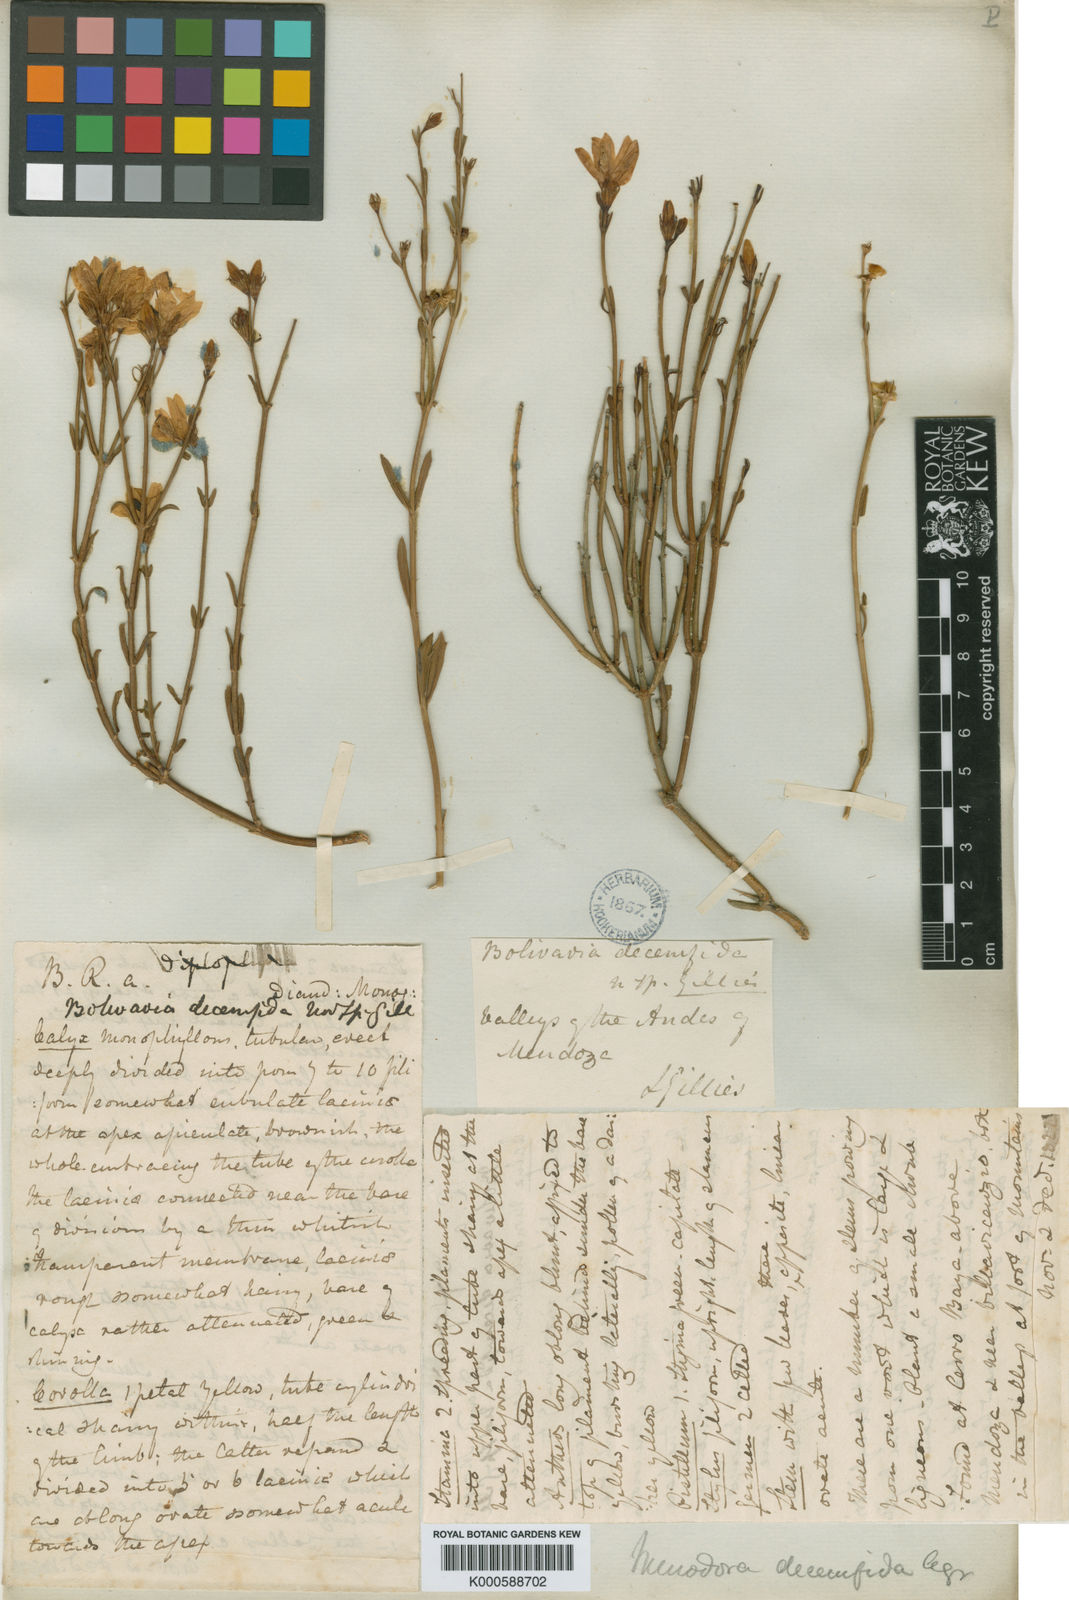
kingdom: Plantae
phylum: Tracheophyta
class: Magnoliopsida
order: Lamiales
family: Oleaceae
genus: Menodora
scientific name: Menodora decemfida
